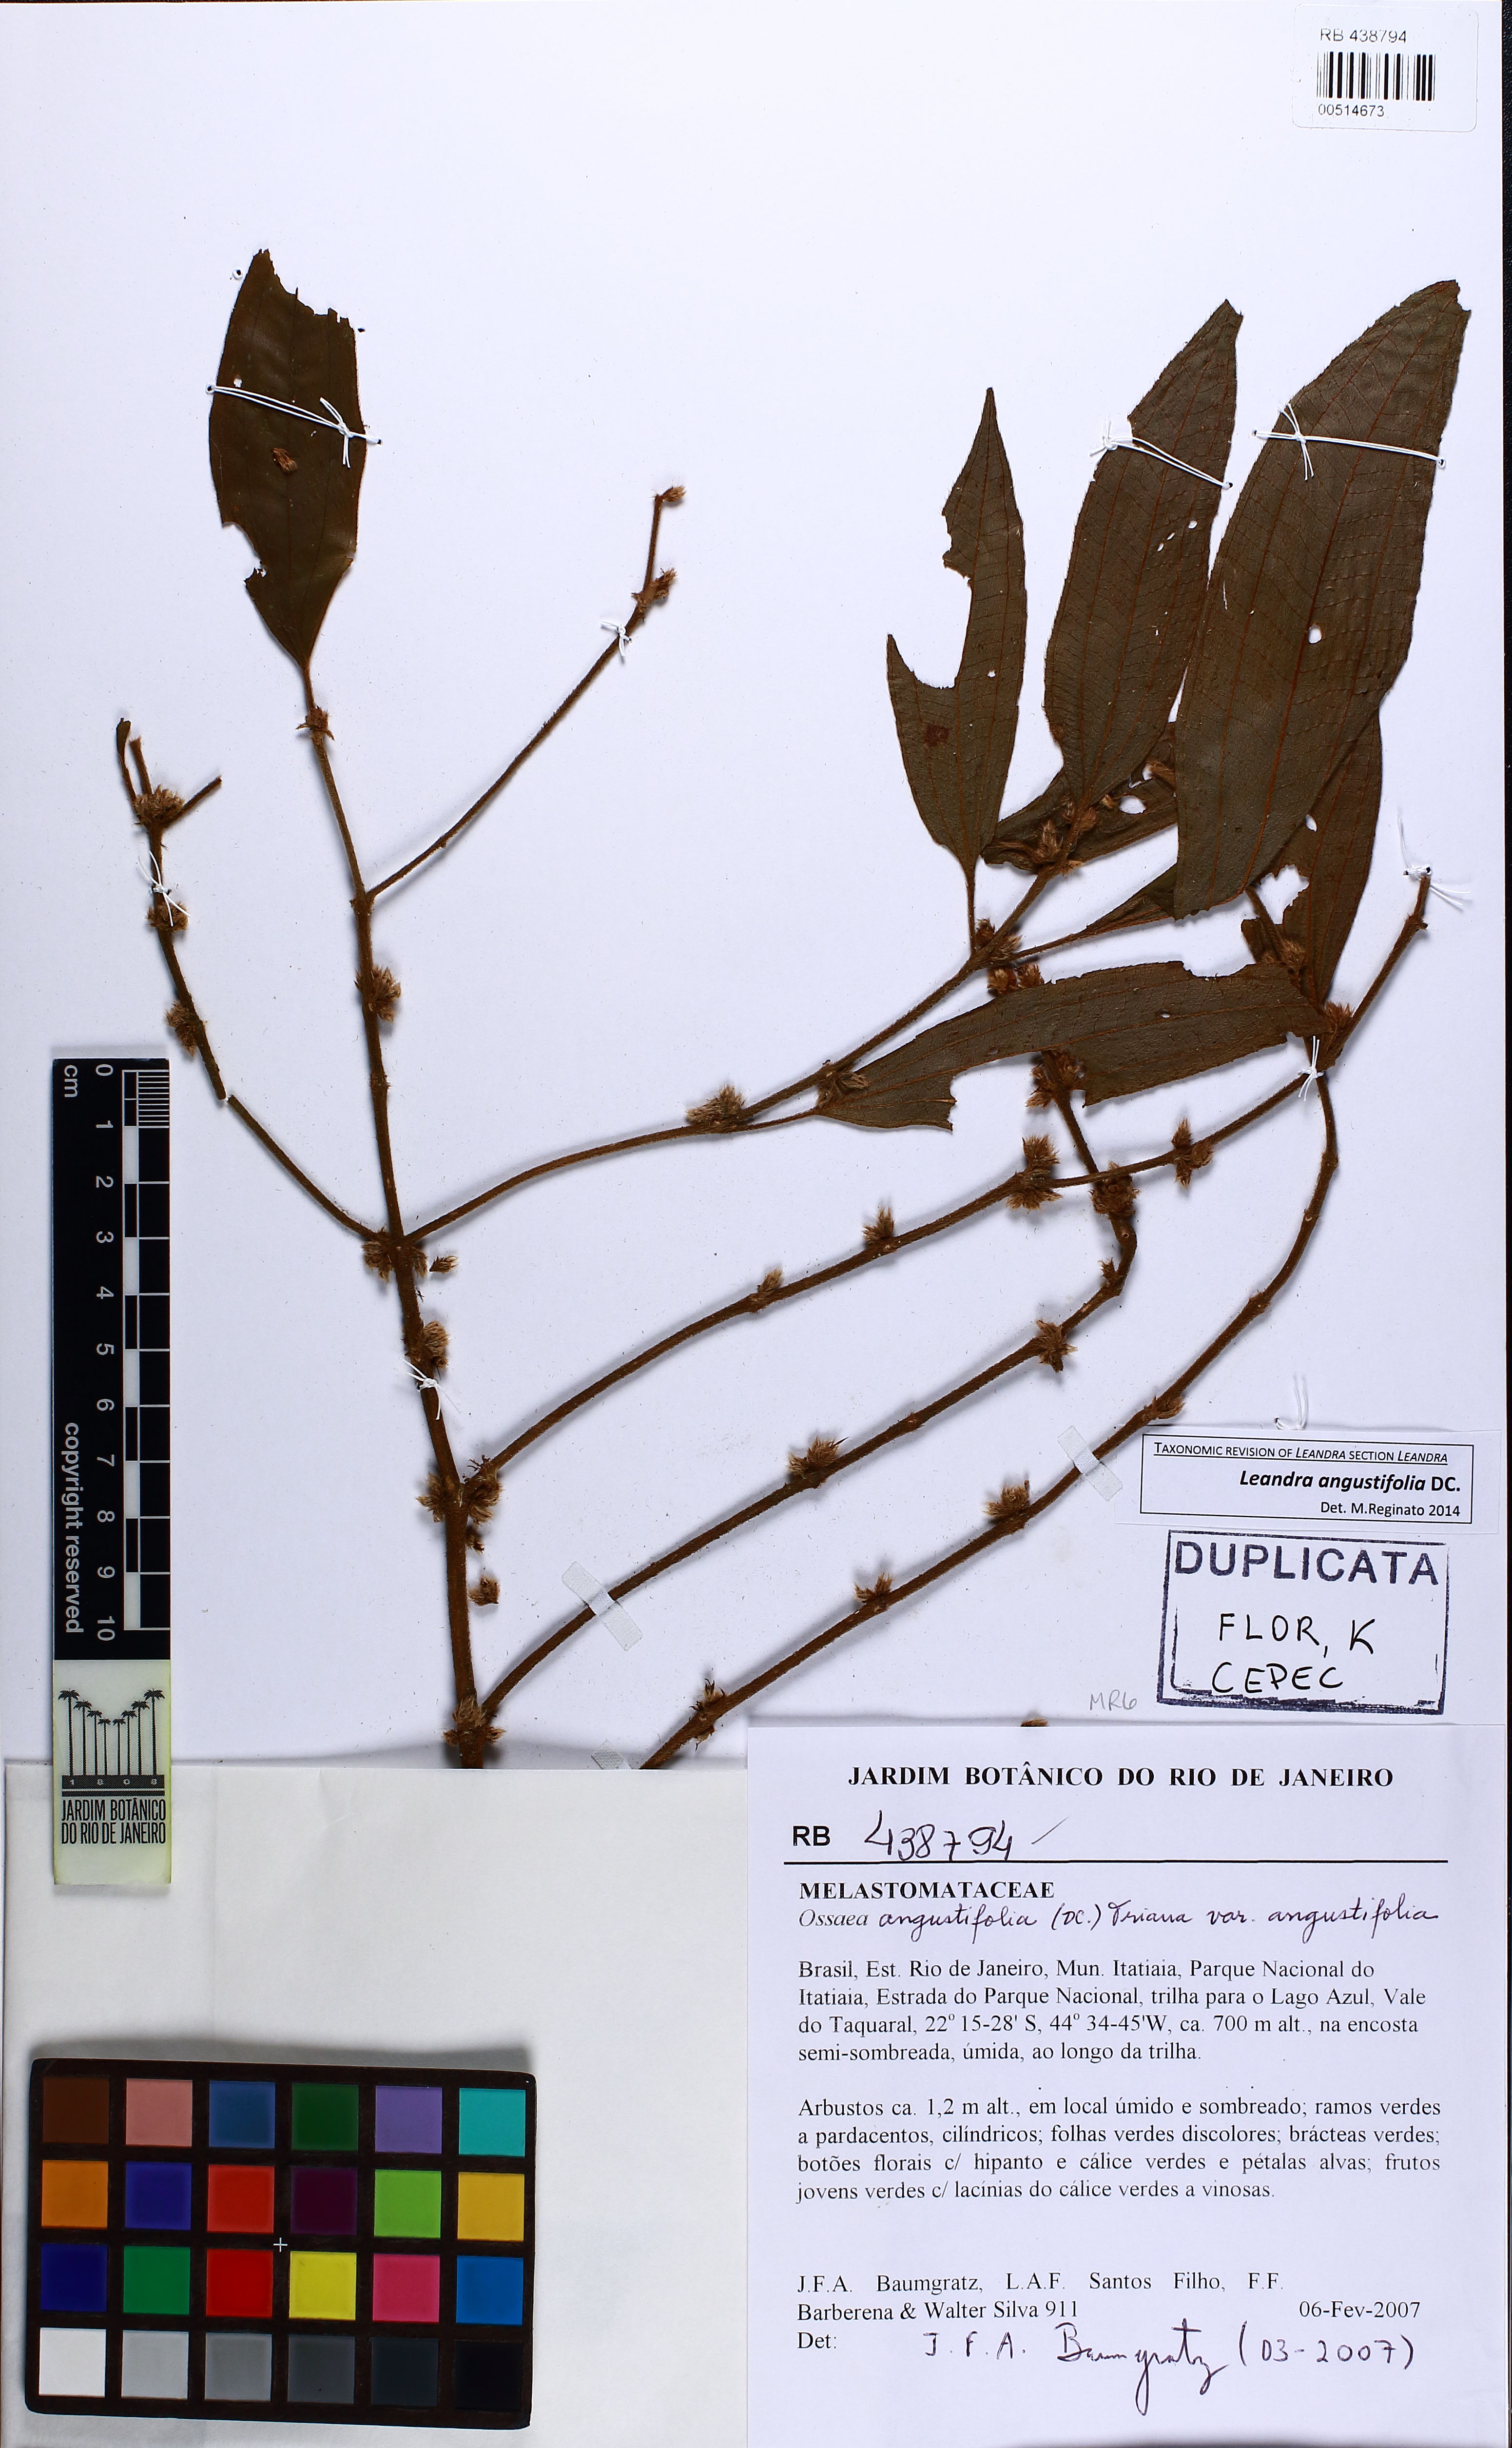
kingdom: Plantae
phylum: Tracheophyta
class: Magnoliopsida
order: Myrtales
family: Melastomataceae
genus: Miconia
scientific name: Miconia corcovadensis
